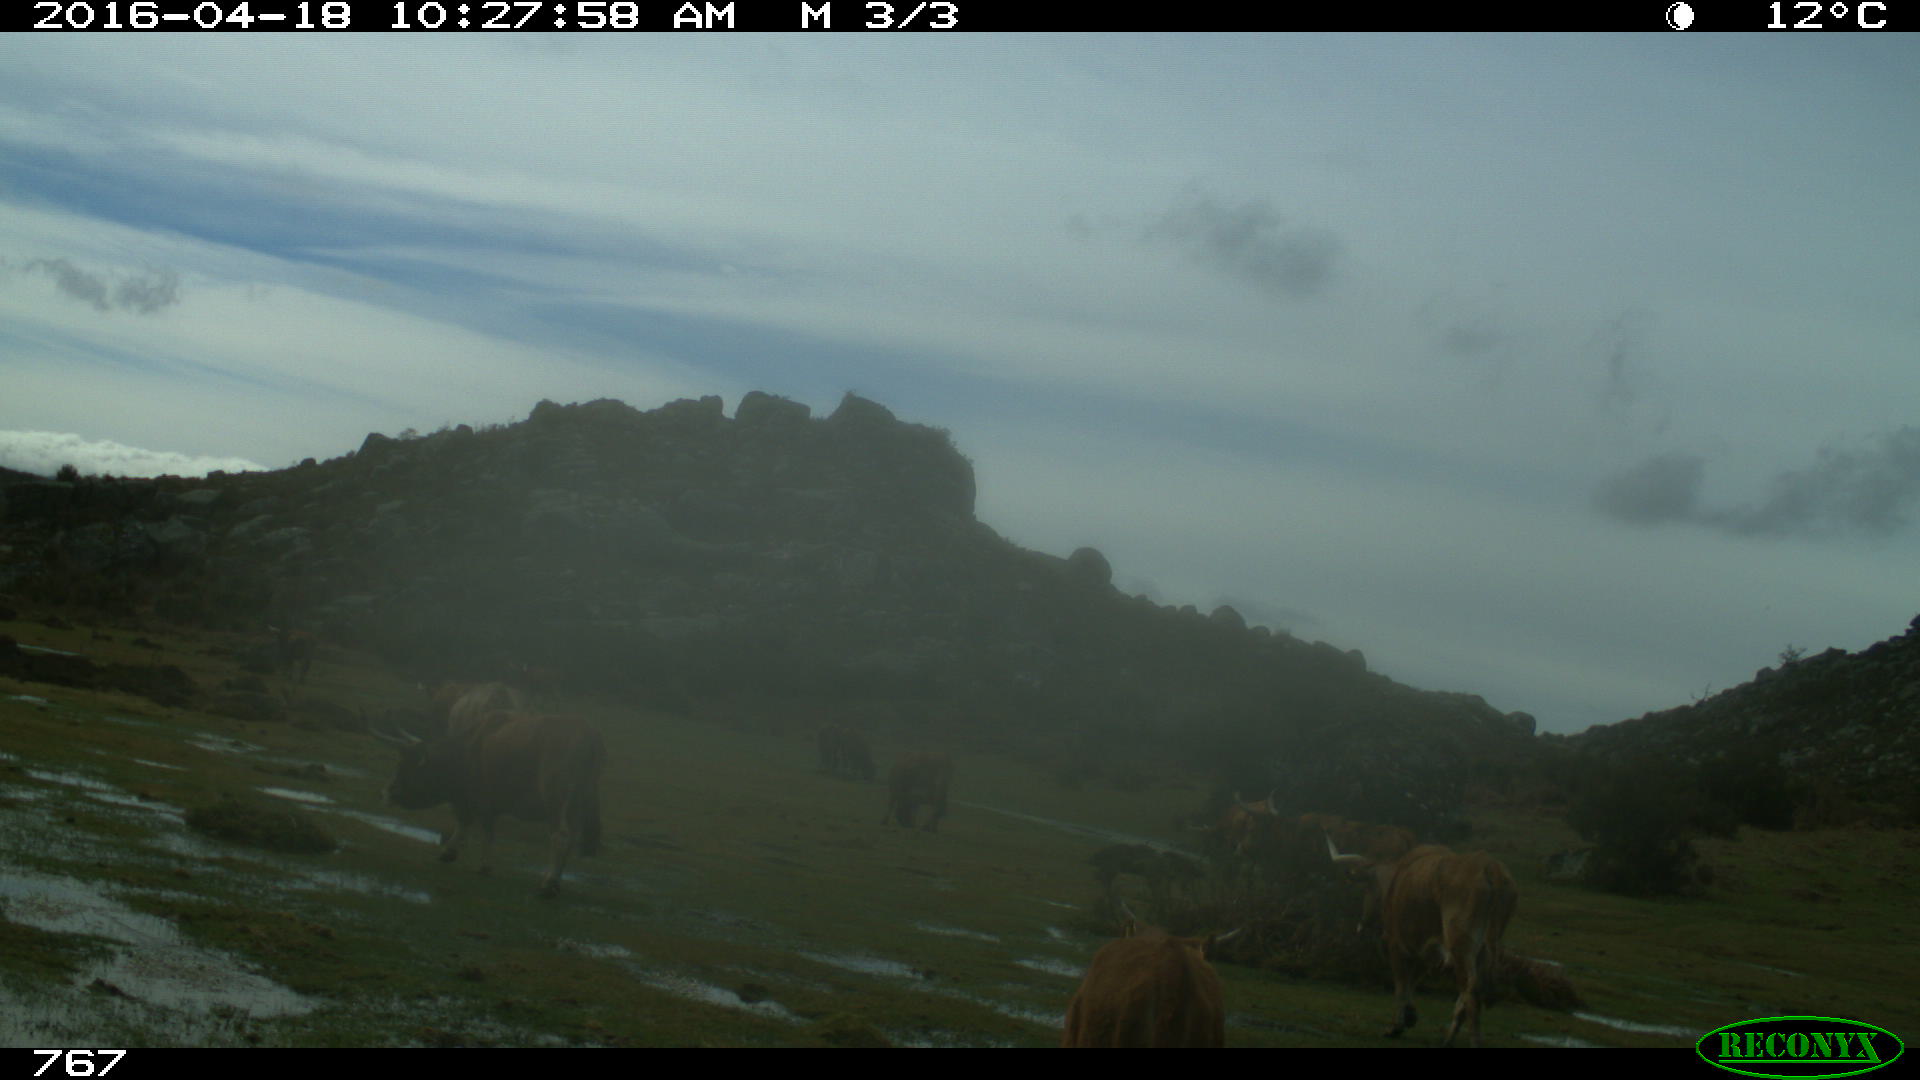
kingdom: Animalia
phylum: Chordata
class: Mammalia
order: Artiodactyla
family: Bovidae
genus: Bos
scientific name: Bos taurus
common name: Domesticated cattle
